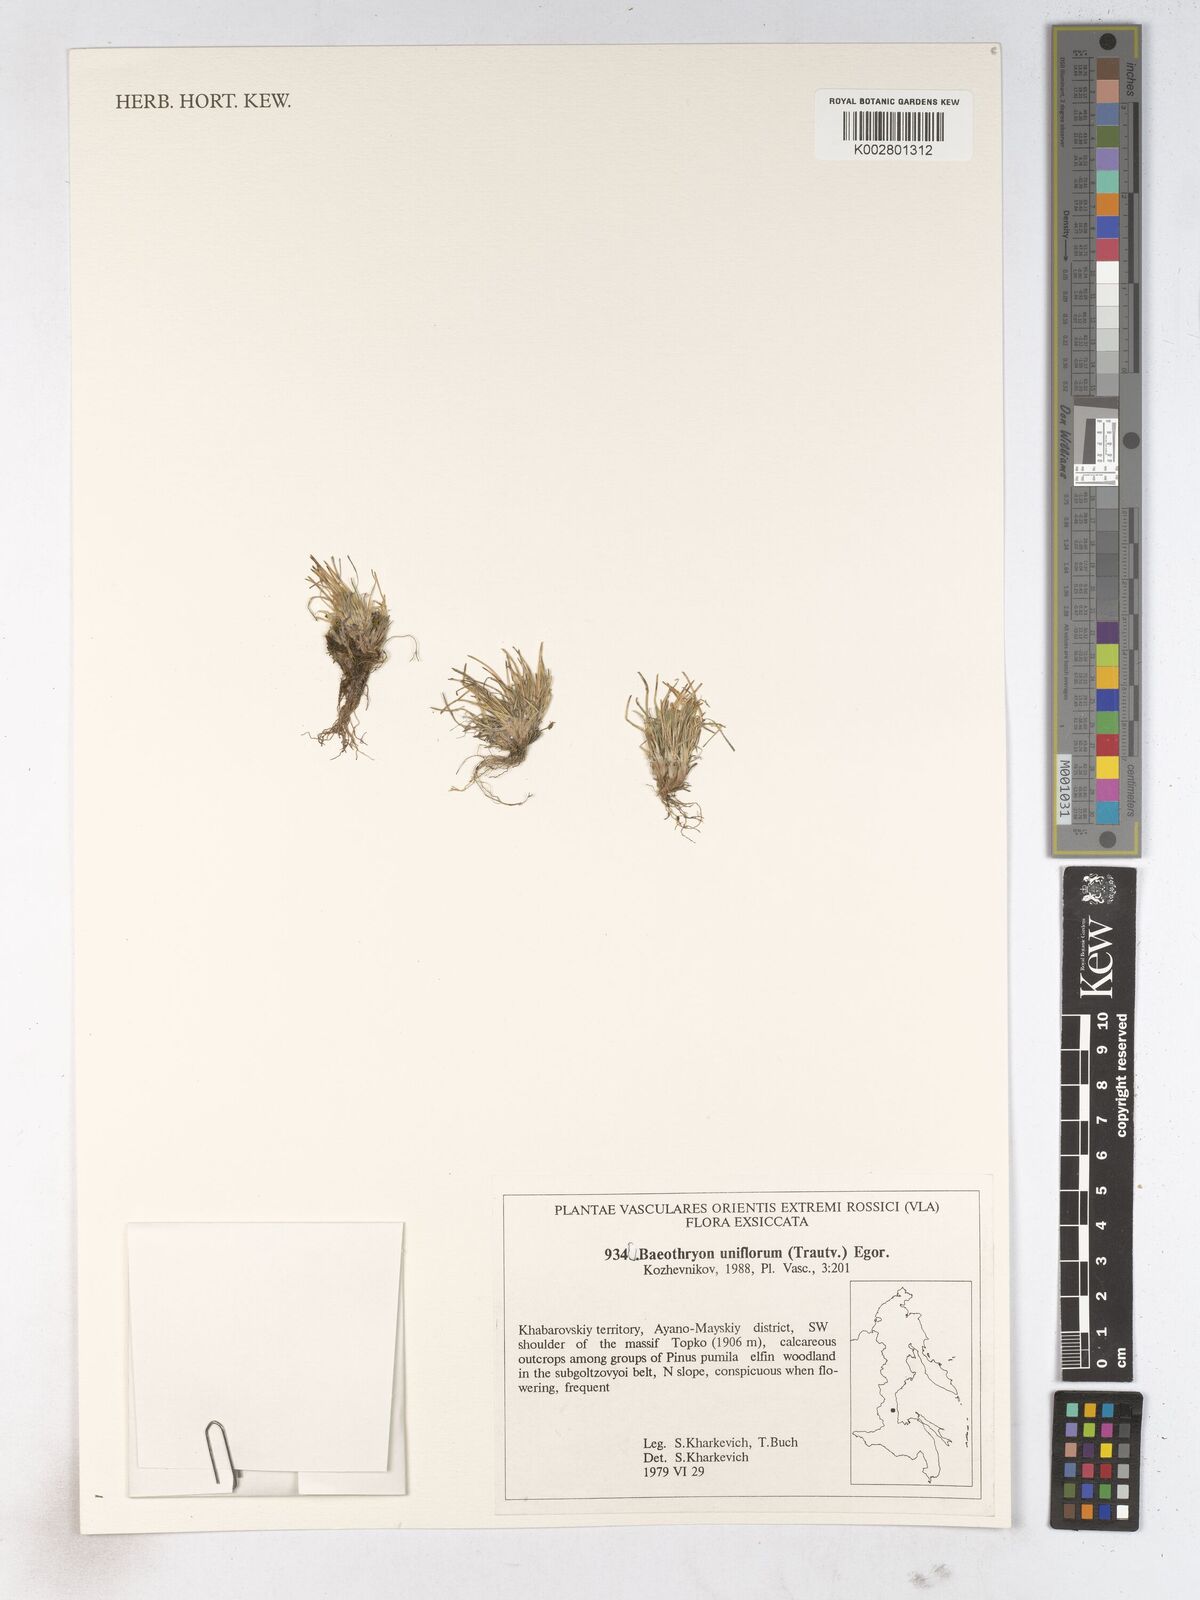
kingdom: Plantae
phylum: Tracheophyta
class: Liliopsida
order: Poales
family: Cyperaceae
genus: Trichophorum
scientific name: Trichophorum pumilum
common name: Rolland's bulrush
